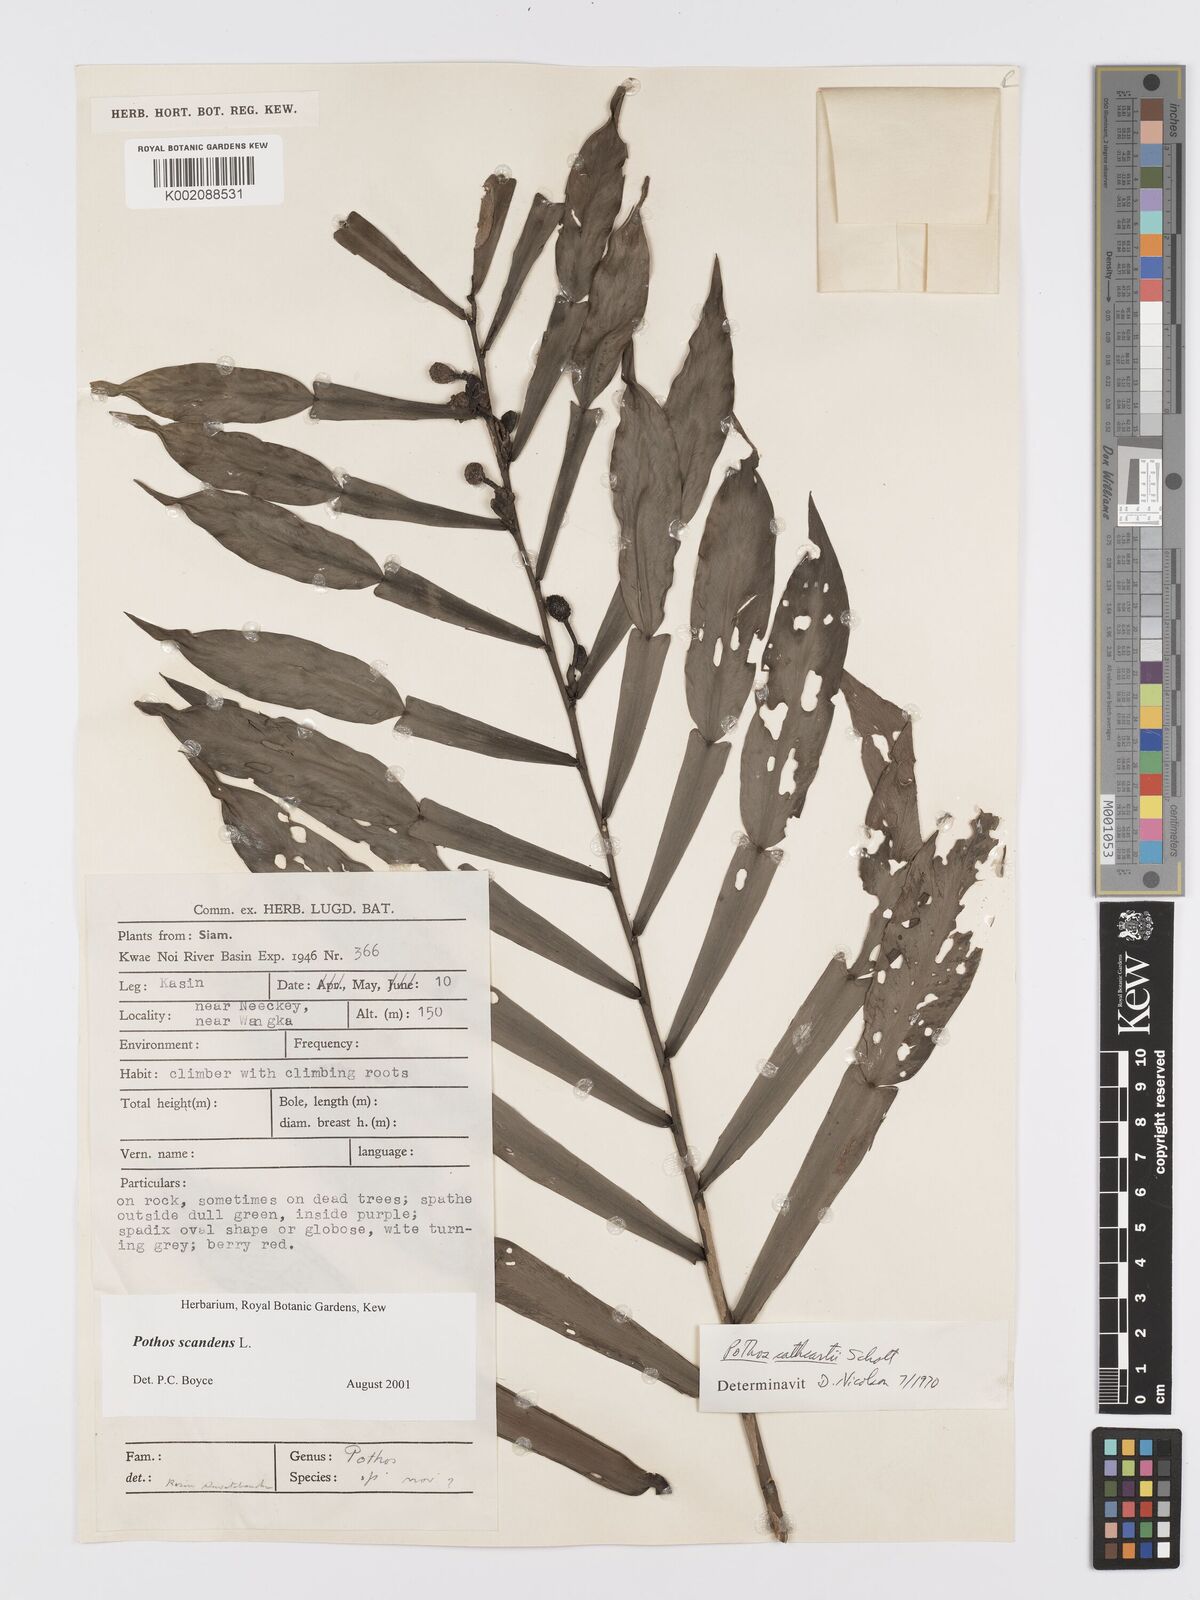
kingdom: Plantae
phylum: Tracheophyta
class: Liliopsida
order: Alismatales
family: Araceae
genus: Pothos
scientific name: Pothos scandens
